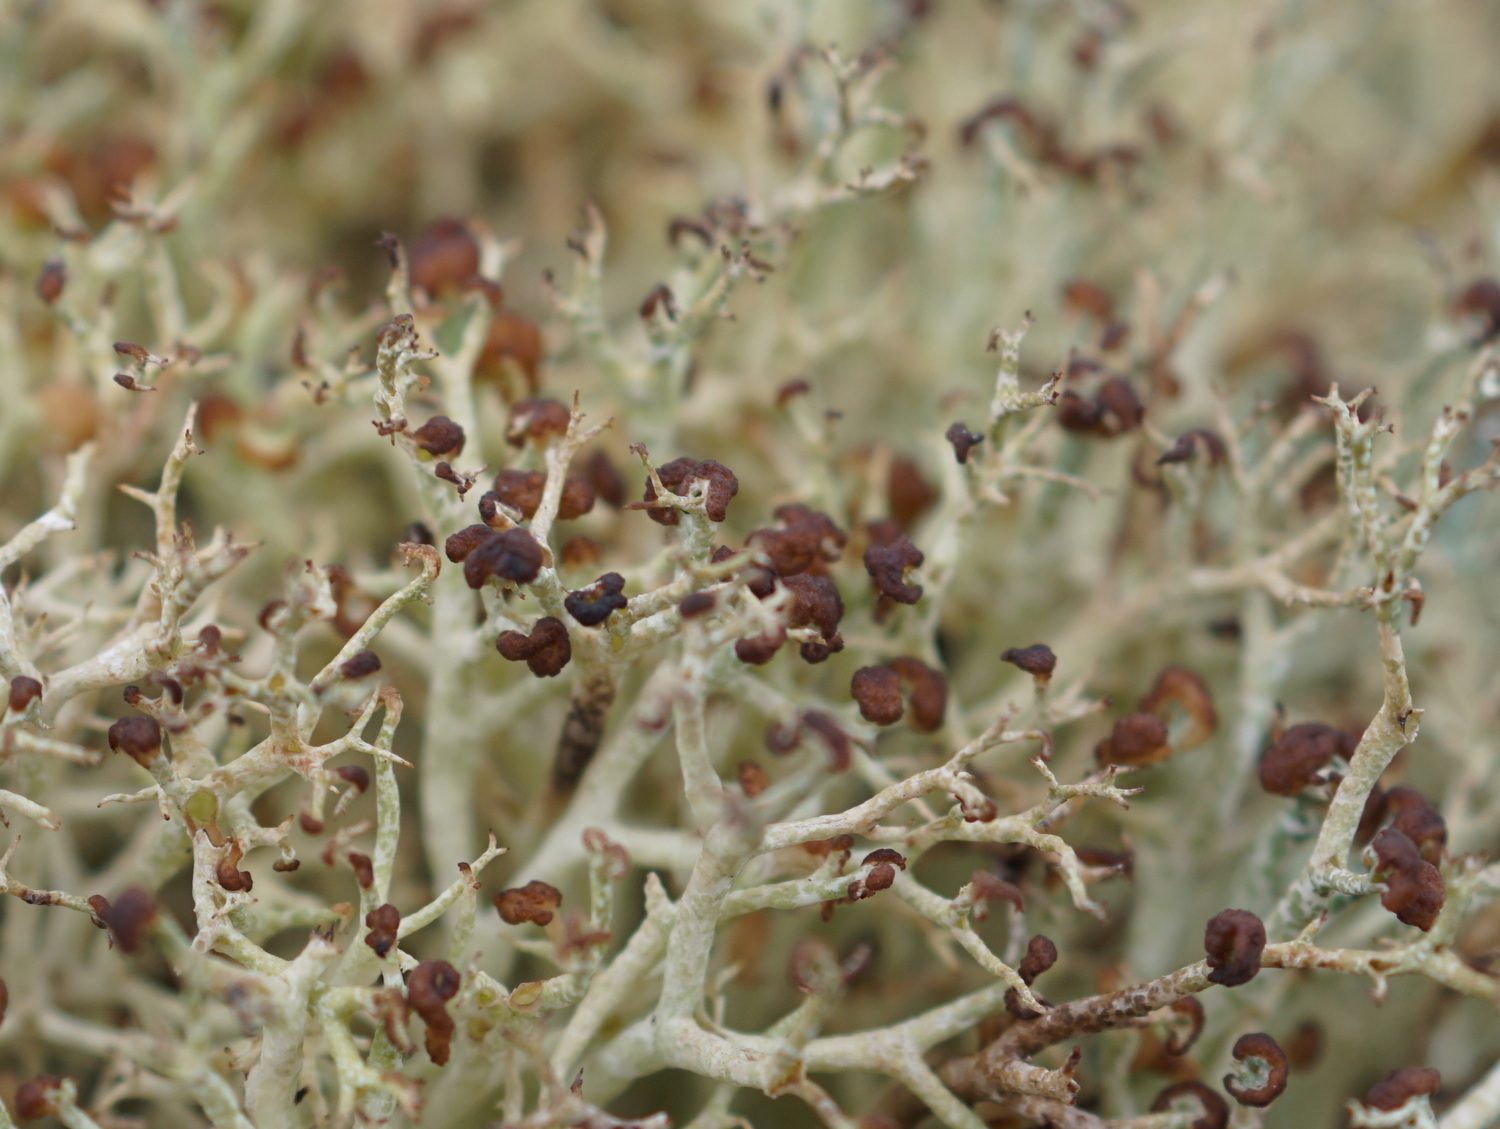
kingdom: Fungi
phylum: Basidiomycota
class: Tremellomycetes
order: Filobasidiales
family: Filobasidiaceae
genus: Zyzygomyces
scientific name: Zyzygomyces bachmannii
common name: rensdyrlav-snyltehjerne
